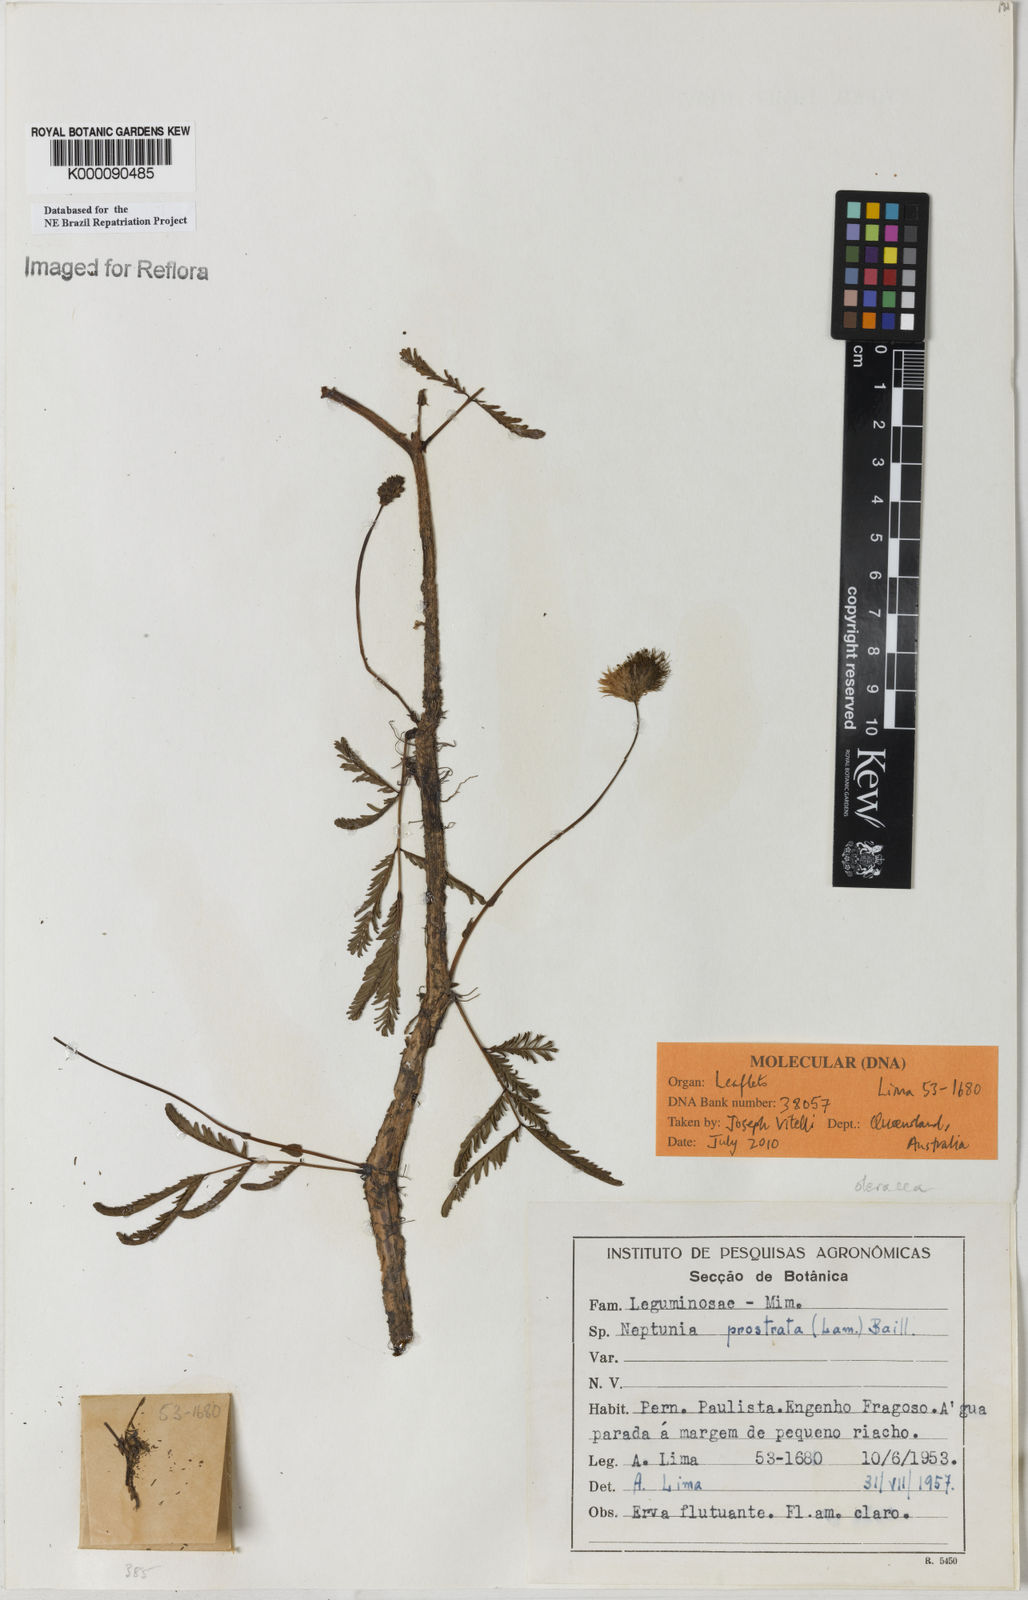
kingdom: Plantae
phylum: Tracheophyta
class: Magnoliopsida
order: Fabales
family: Fabaceae
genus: Neptunia
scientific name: Neptunia prostrata
